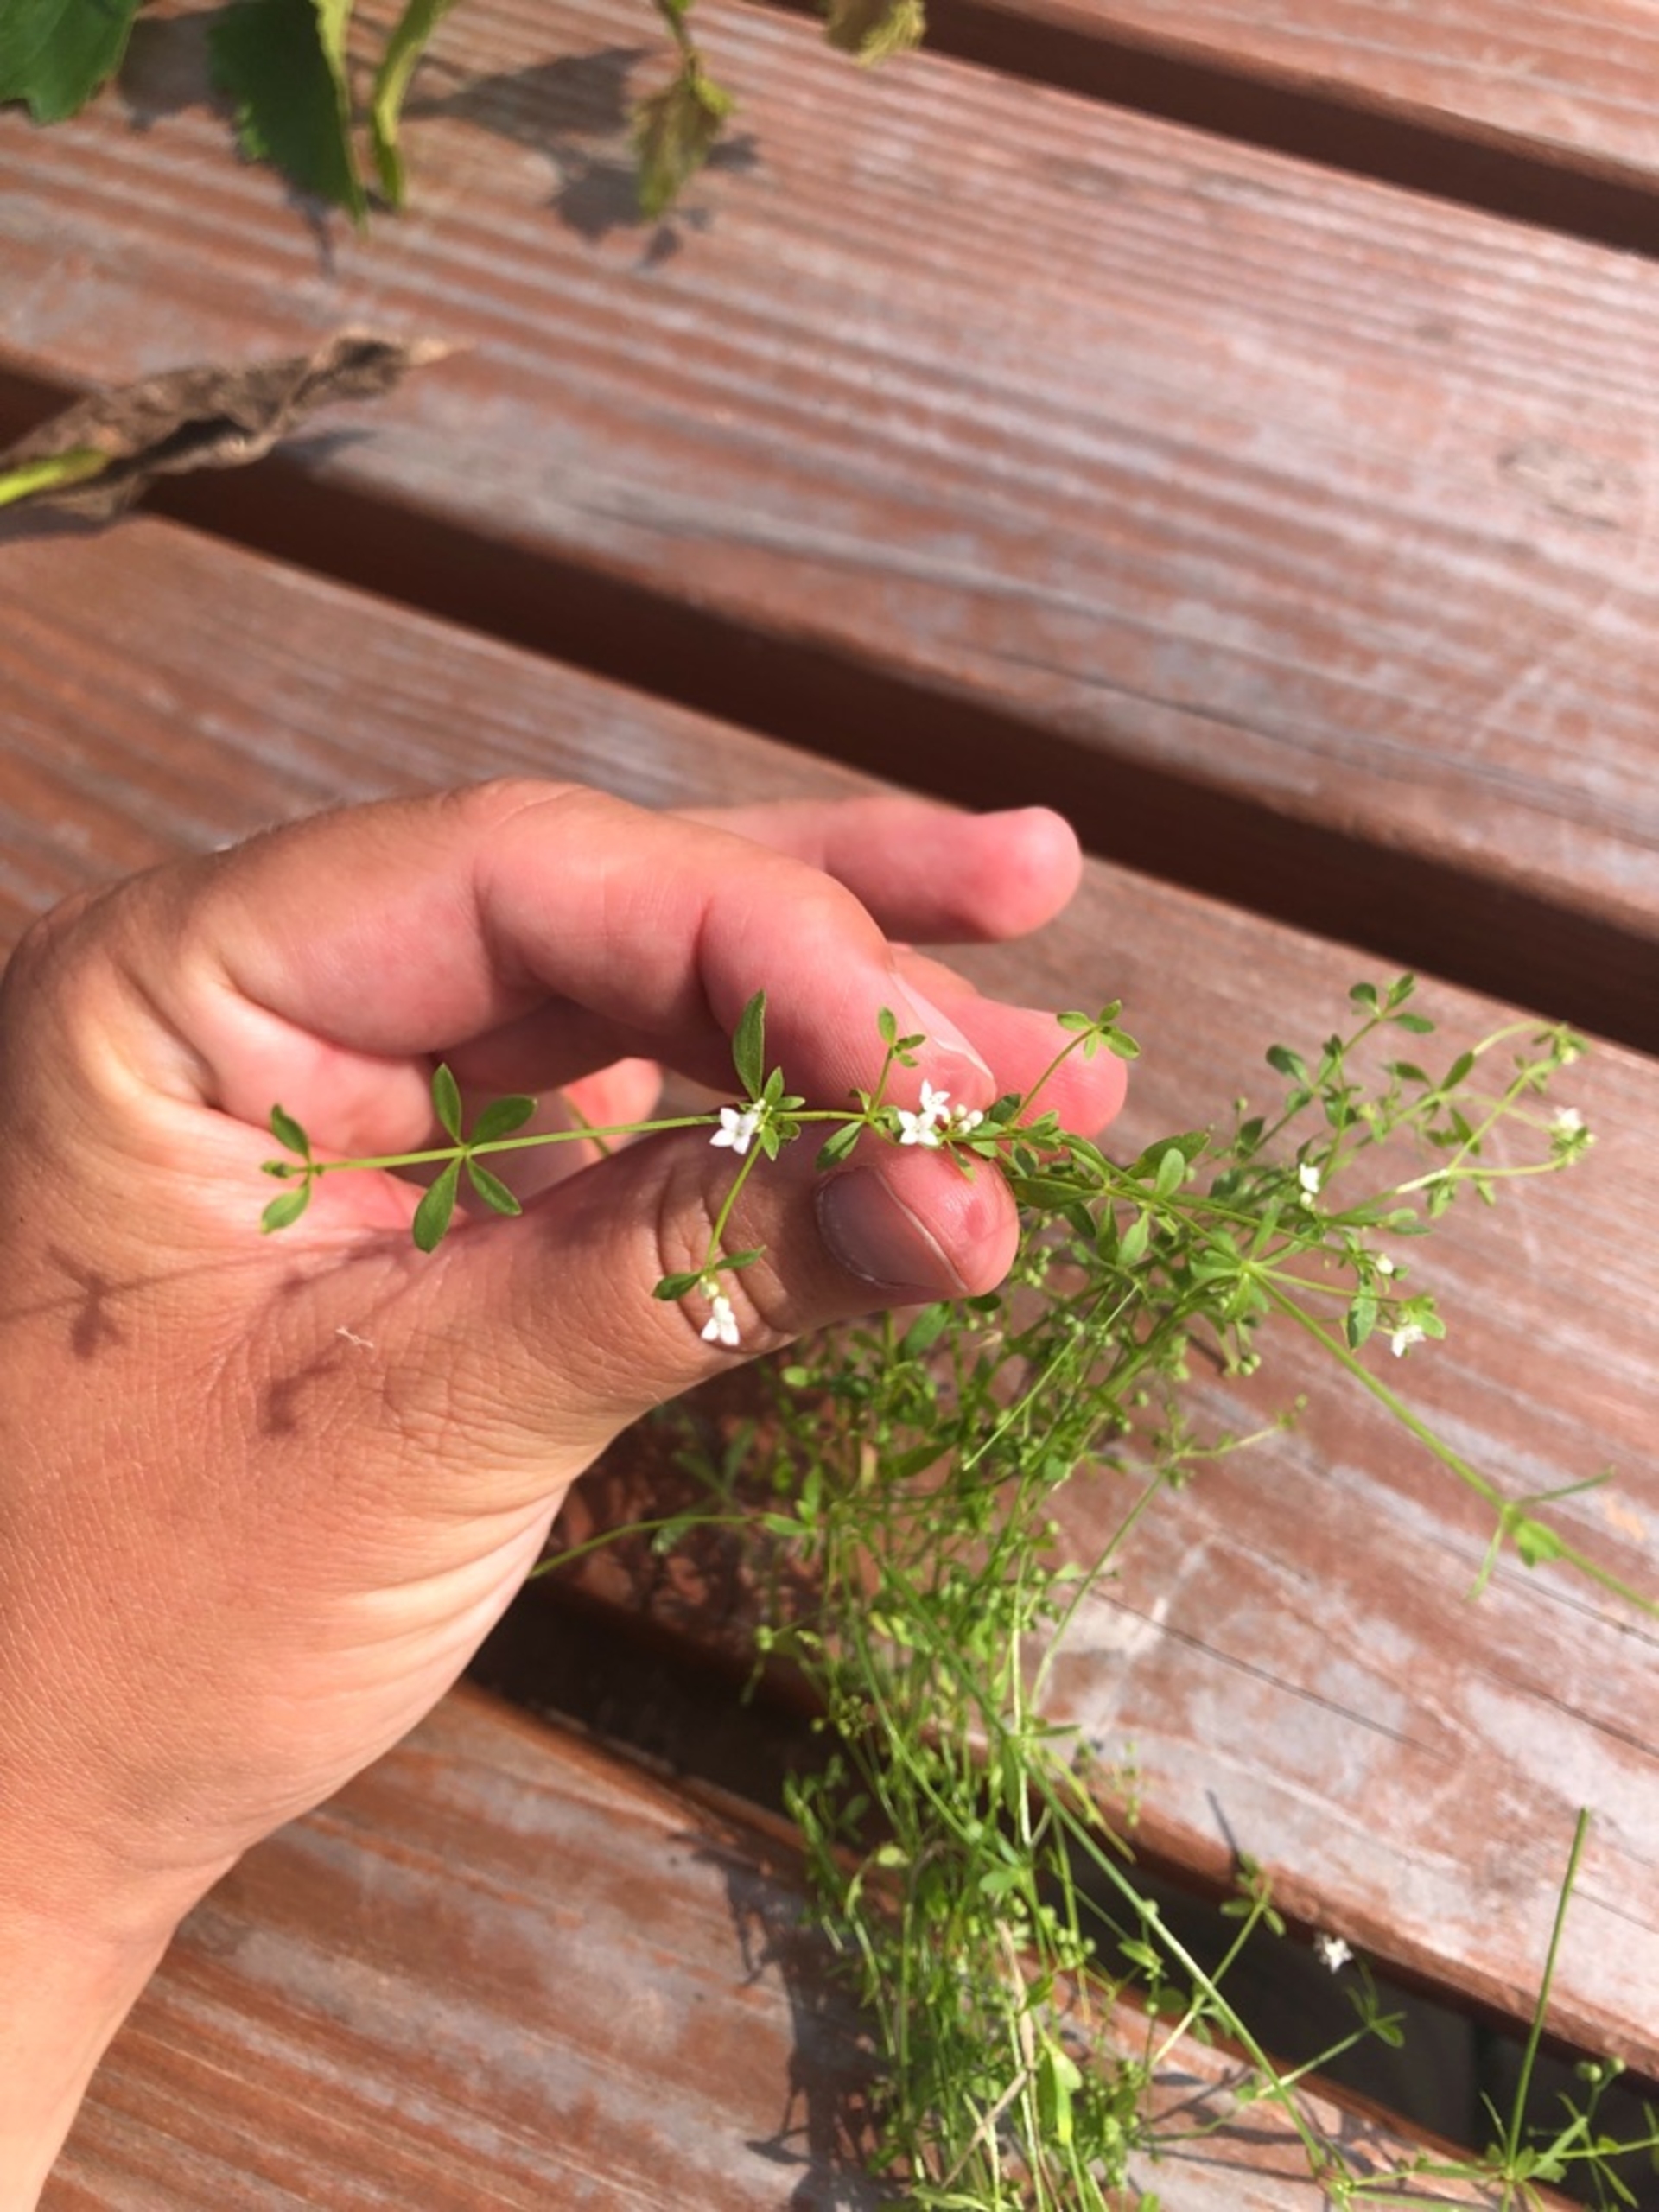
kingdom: Plantae
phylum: Tracheophyta
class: Magnoliopsida
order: Gentianales
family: Rubiaceae
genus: Galium
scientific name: Galium palustre
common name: Kær-snerre
